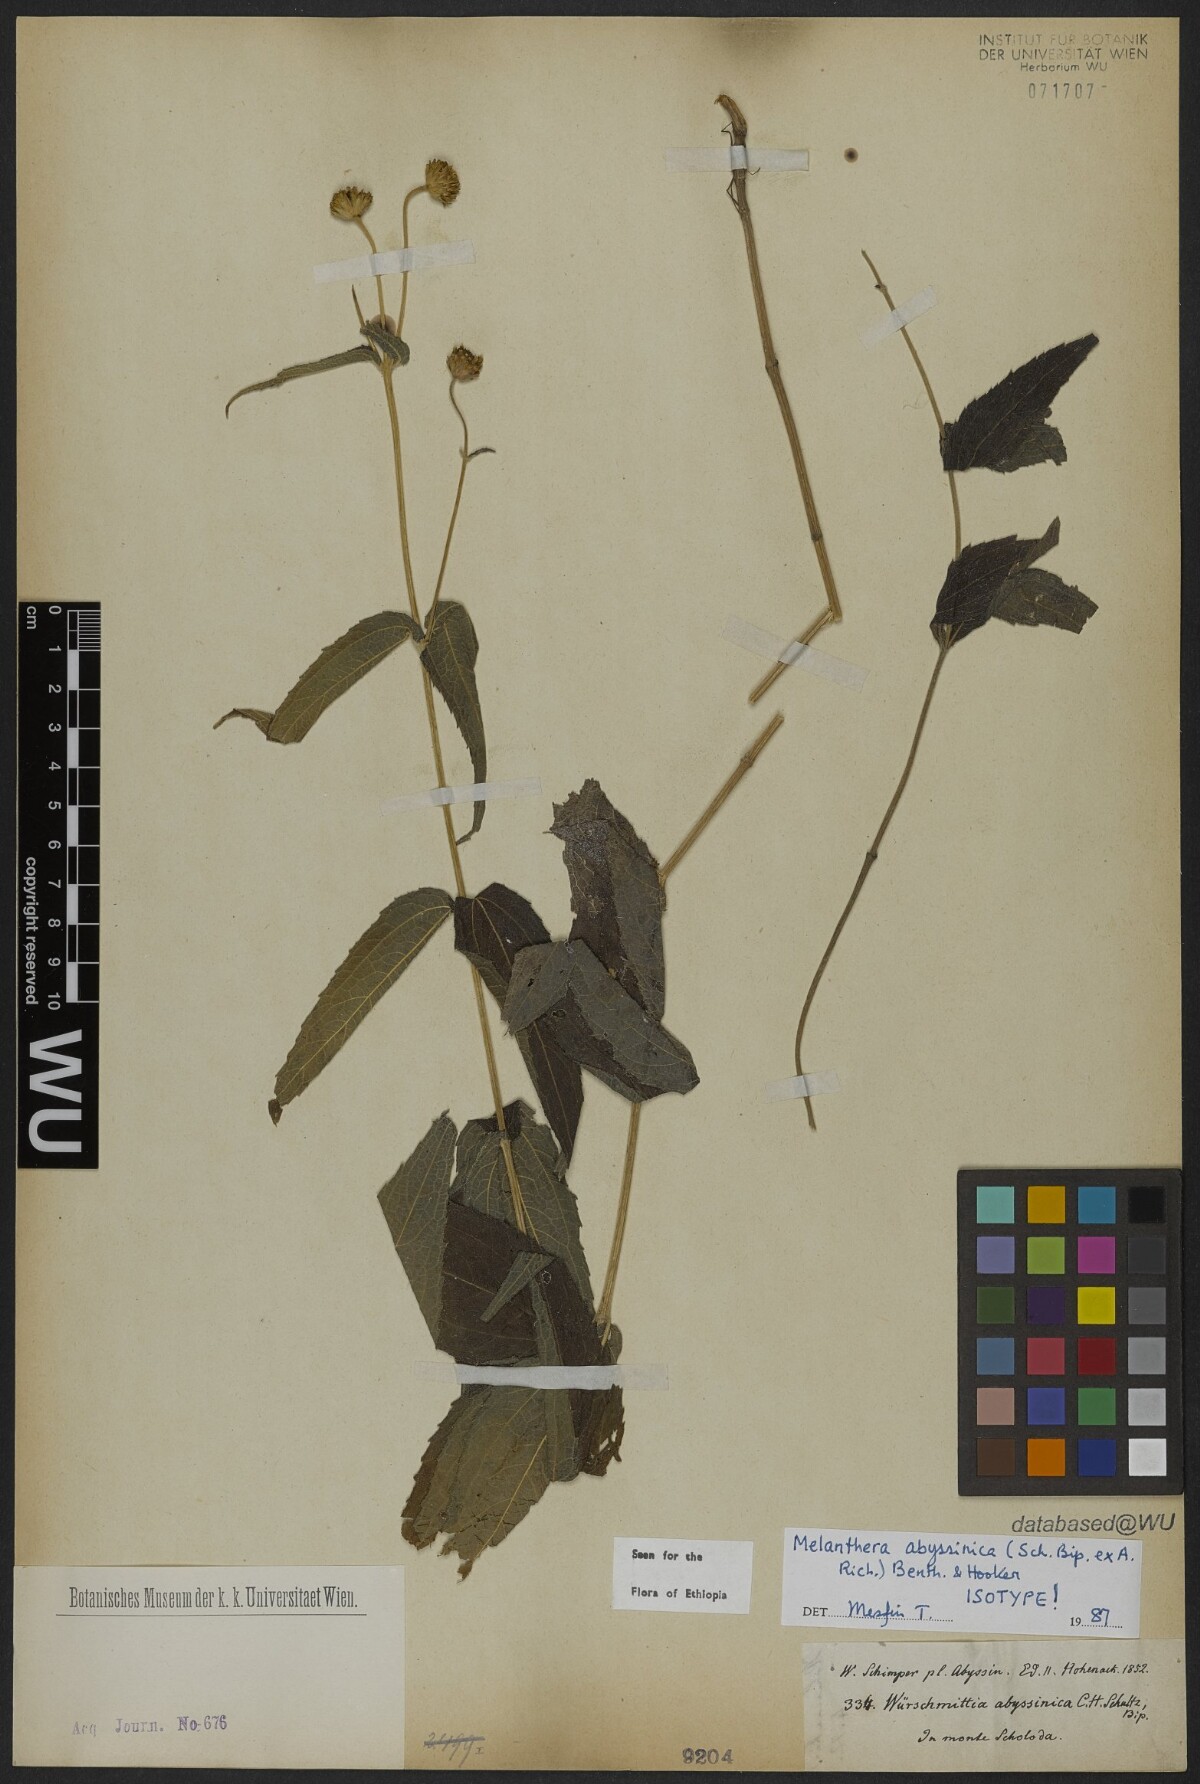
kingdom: Plantae
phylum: Tracheophyta
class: Magnoliopsida
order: Asterales
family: Asteraceae
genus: Lipotriche
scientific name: Lipotriche abyssinica
